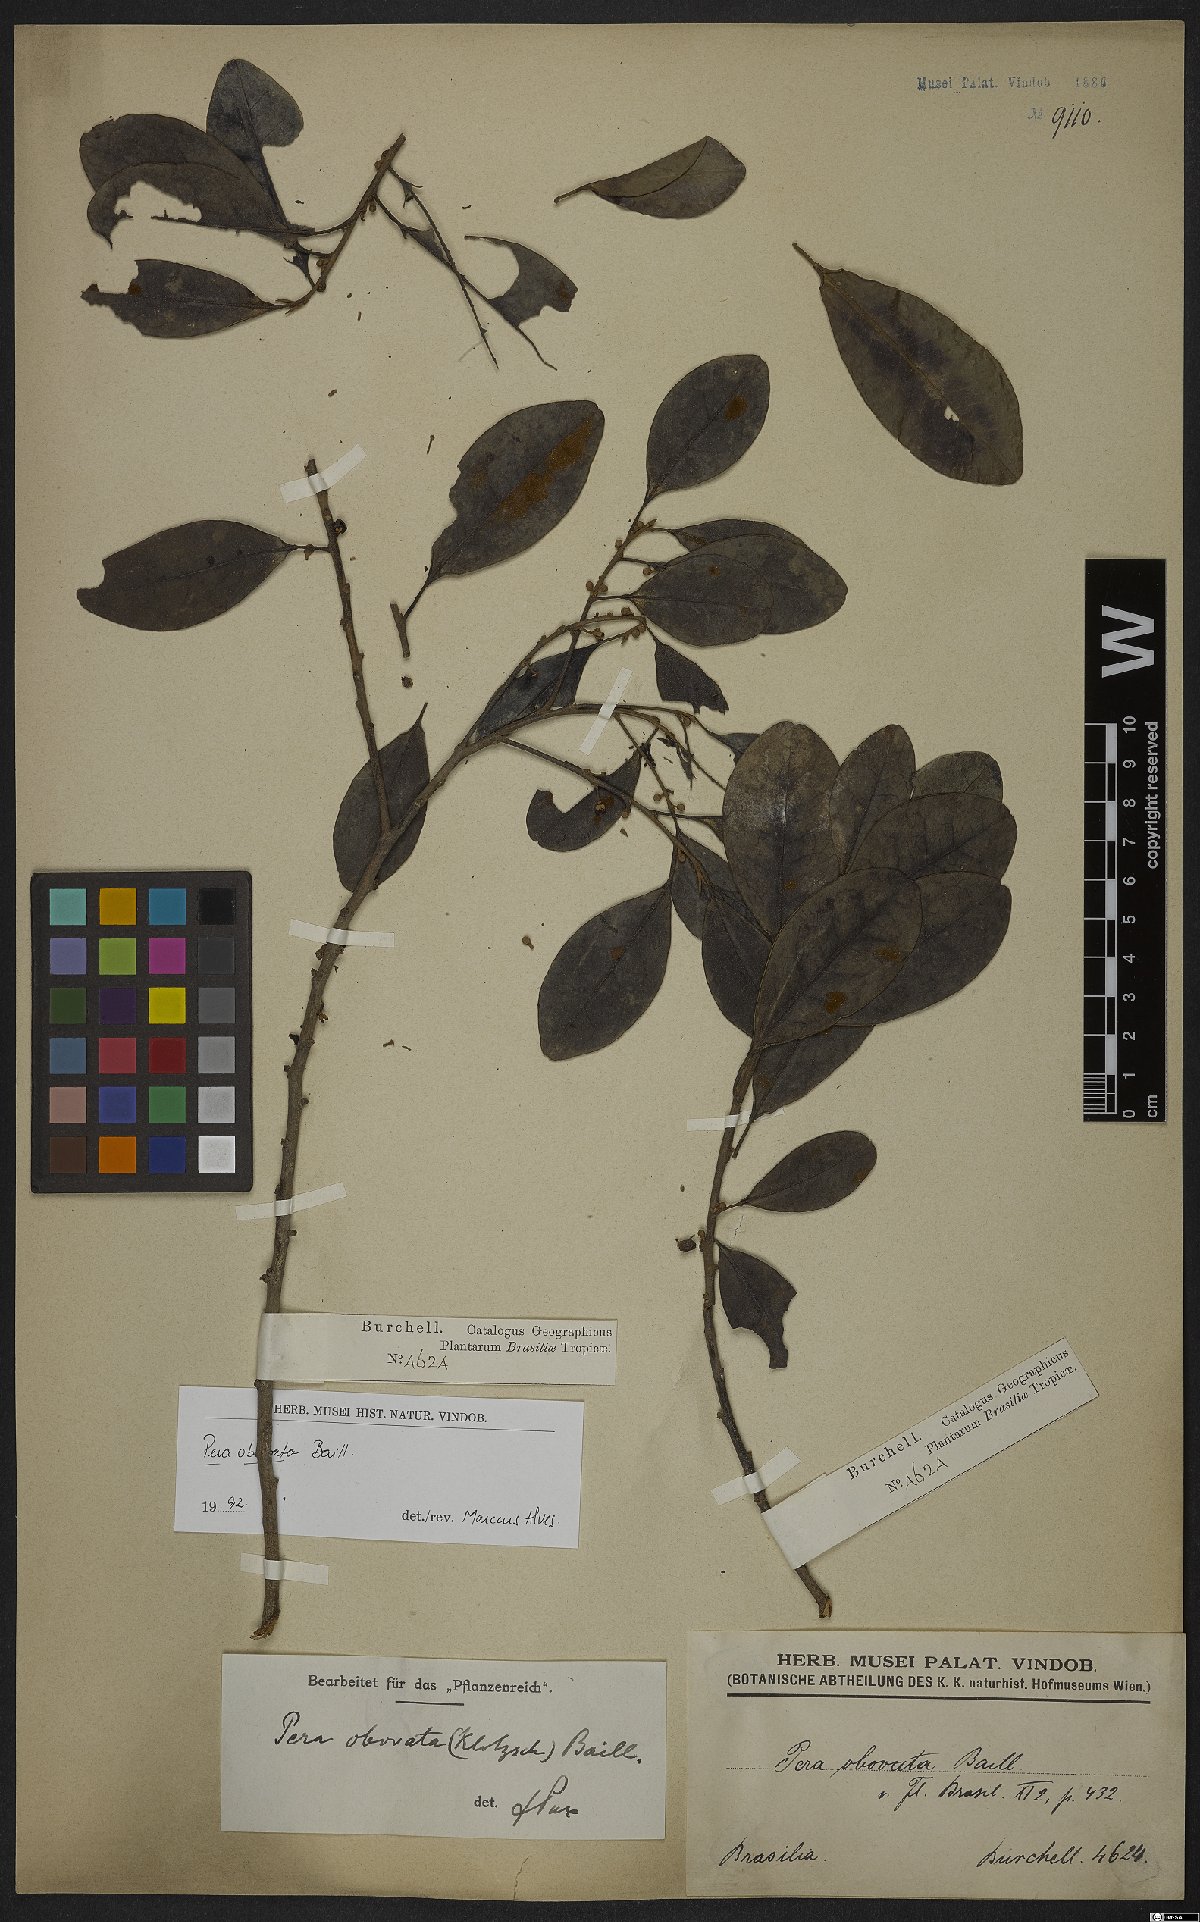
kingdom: Plantae
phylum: Tracheophyta
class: Magnoliopsida
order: Malpighiales
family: Peraceae
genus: Pera
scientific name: Pera glabrata
